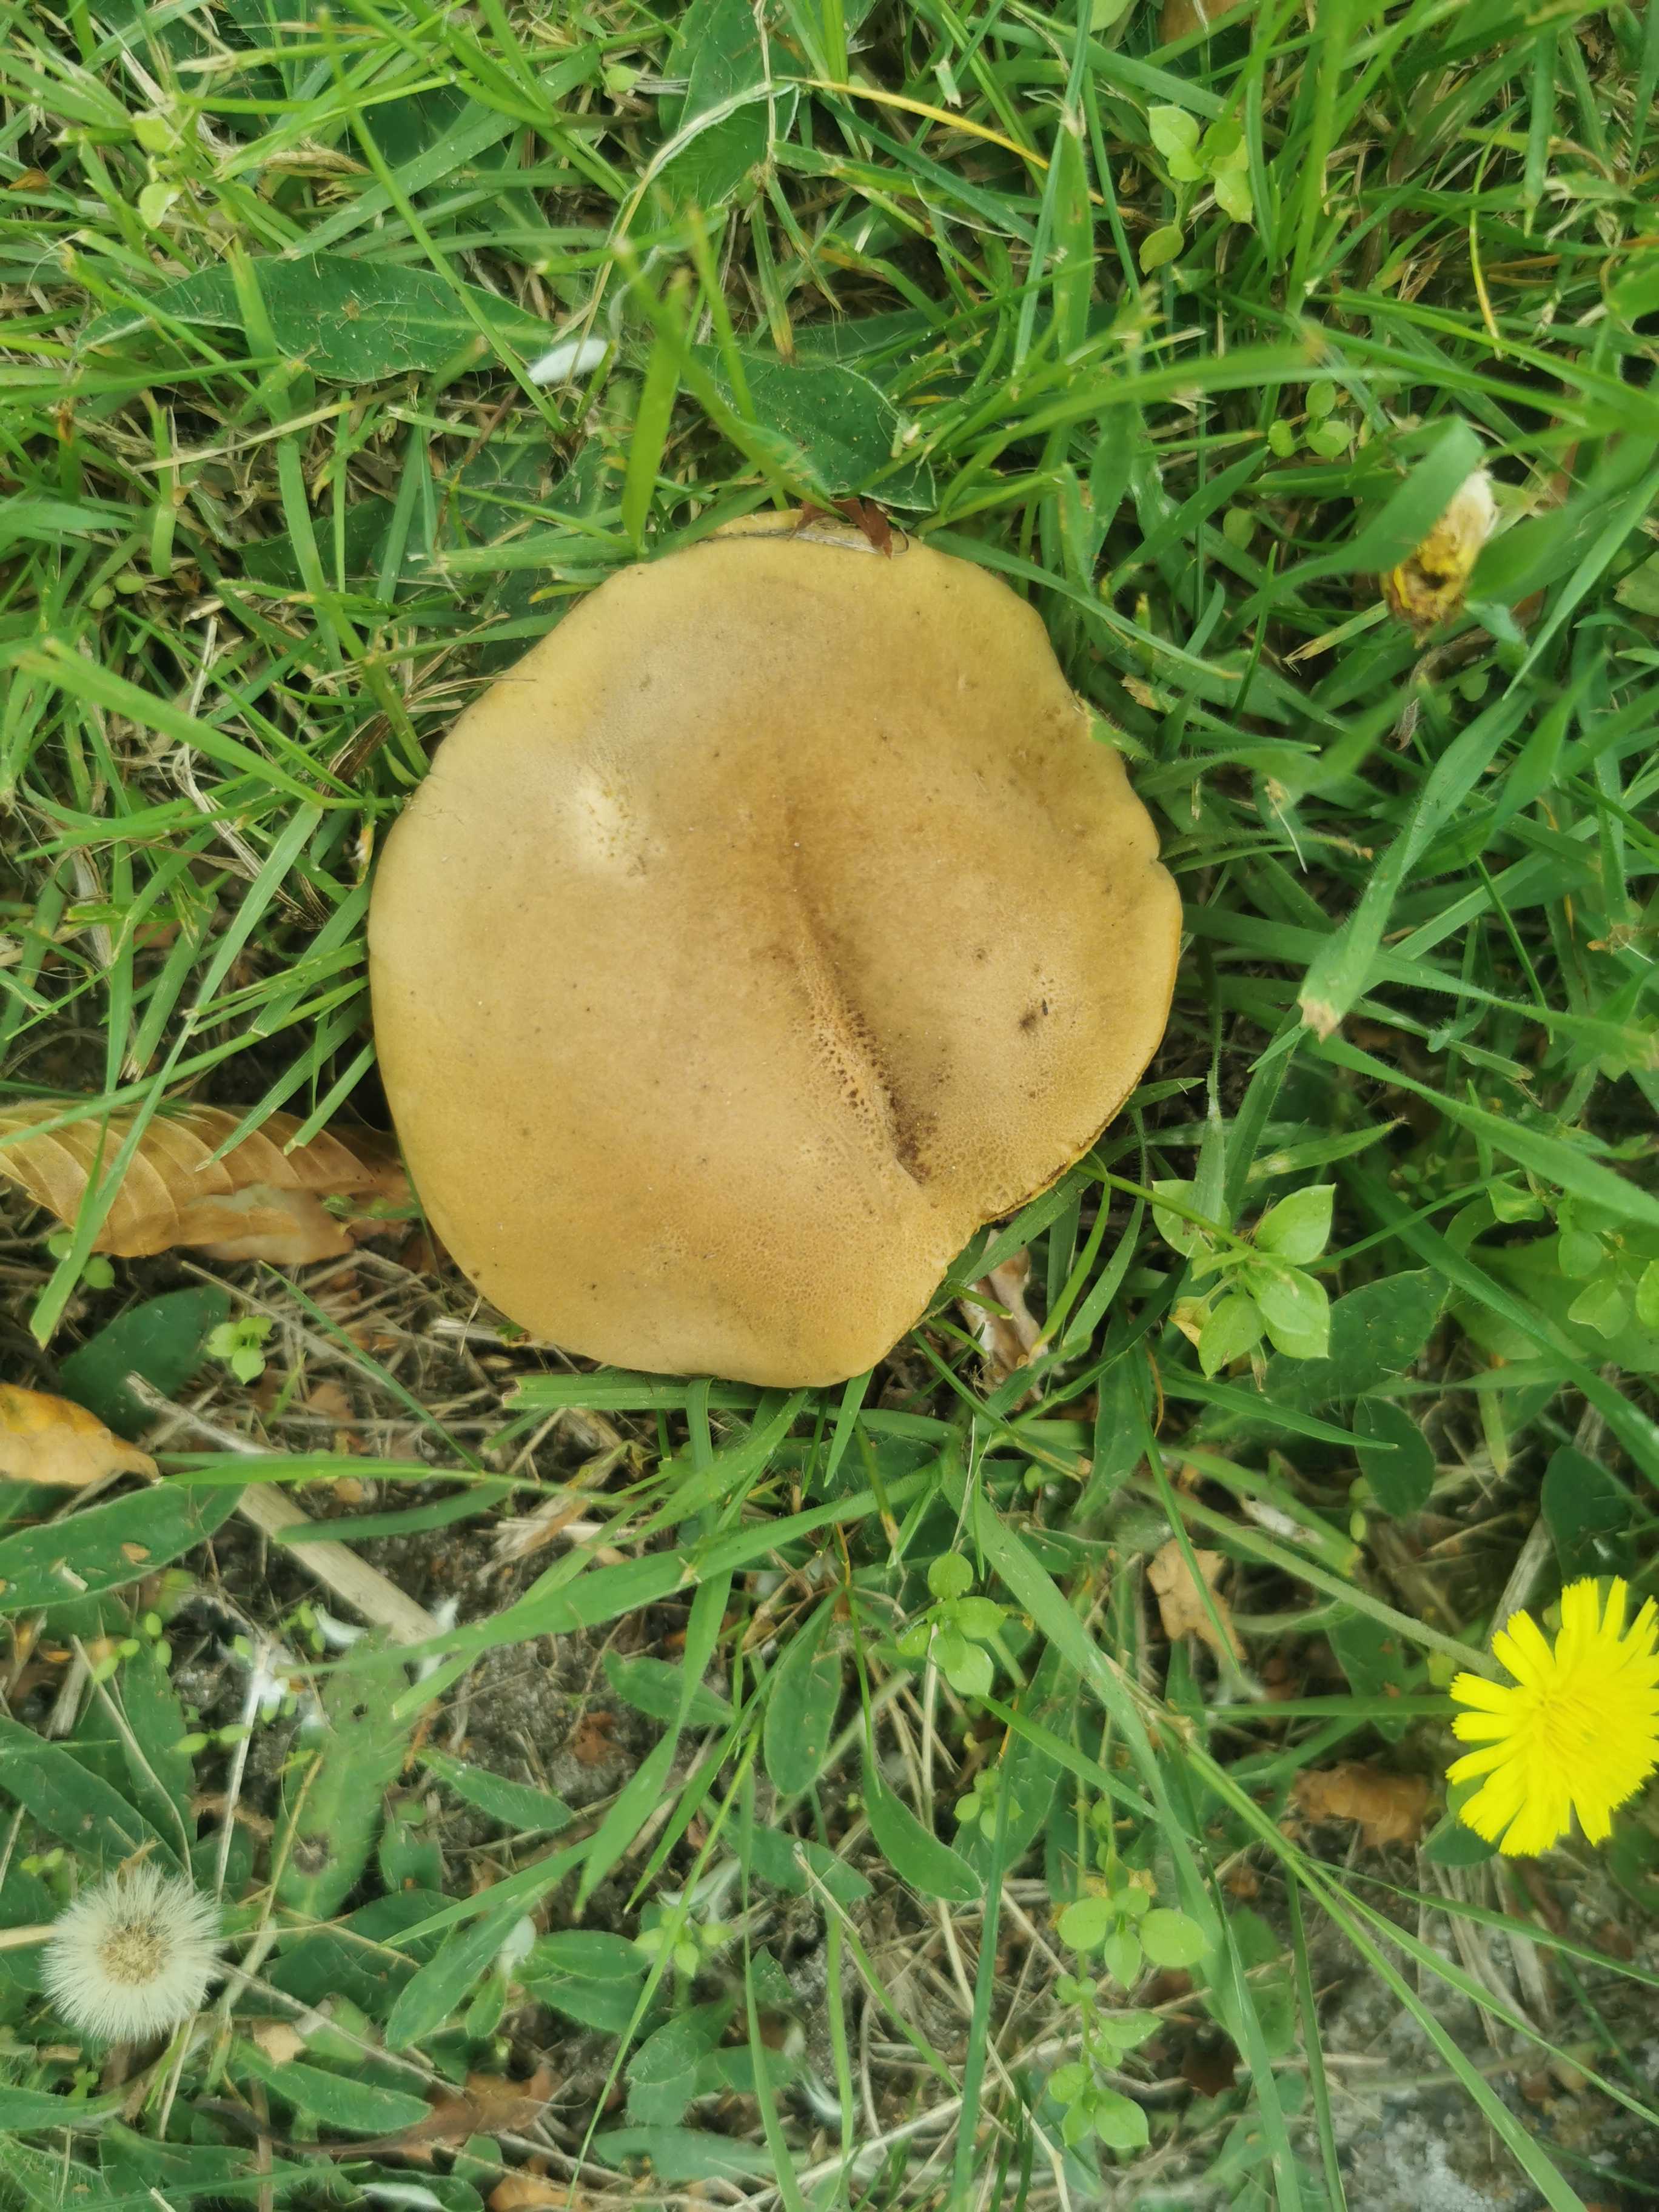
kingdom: Fungi
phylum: Basidiomycota
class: Agaricomycetes
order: Boletales
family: Boletaceae
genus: Hortiboletus
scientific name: Hortiboletus bubalinus
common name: aurora-rørhat
